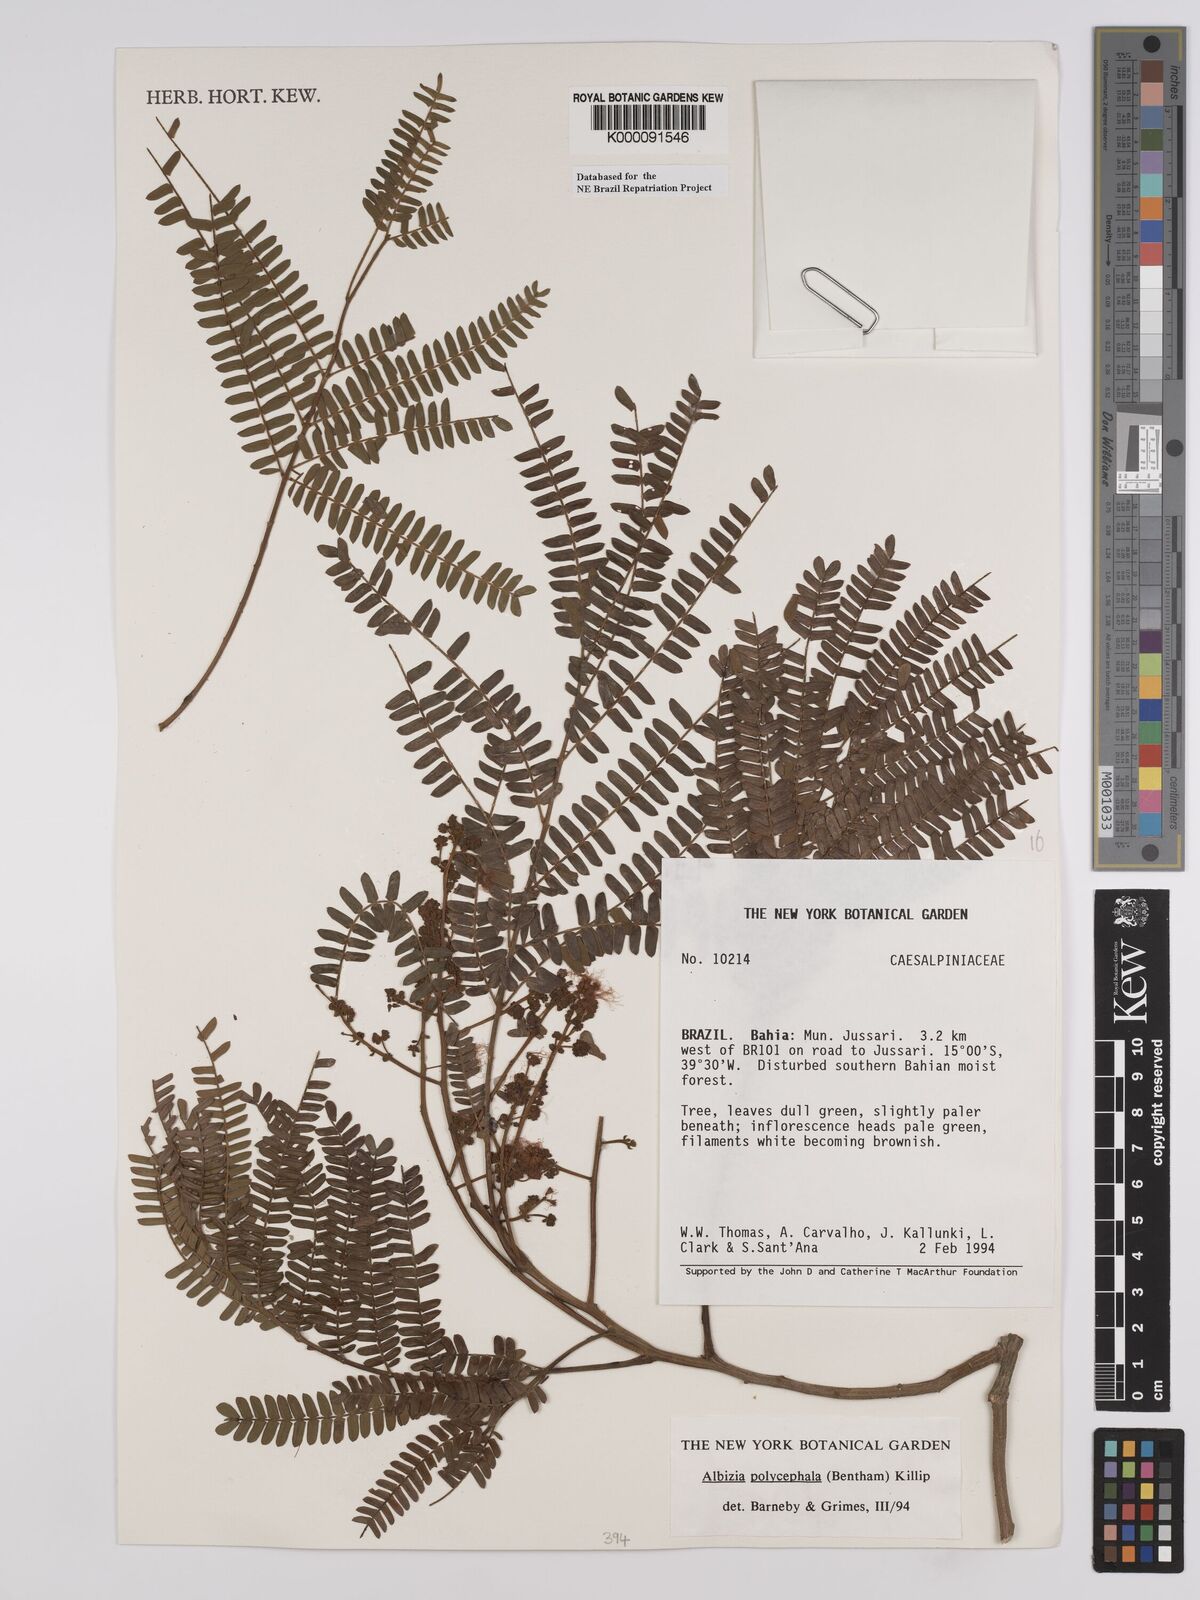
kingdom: Plantae
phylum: Tracheophyta
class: Magnoliopsida
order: Fabales
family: Fabaceae
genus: Albizia
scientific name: Albizia polycephala
